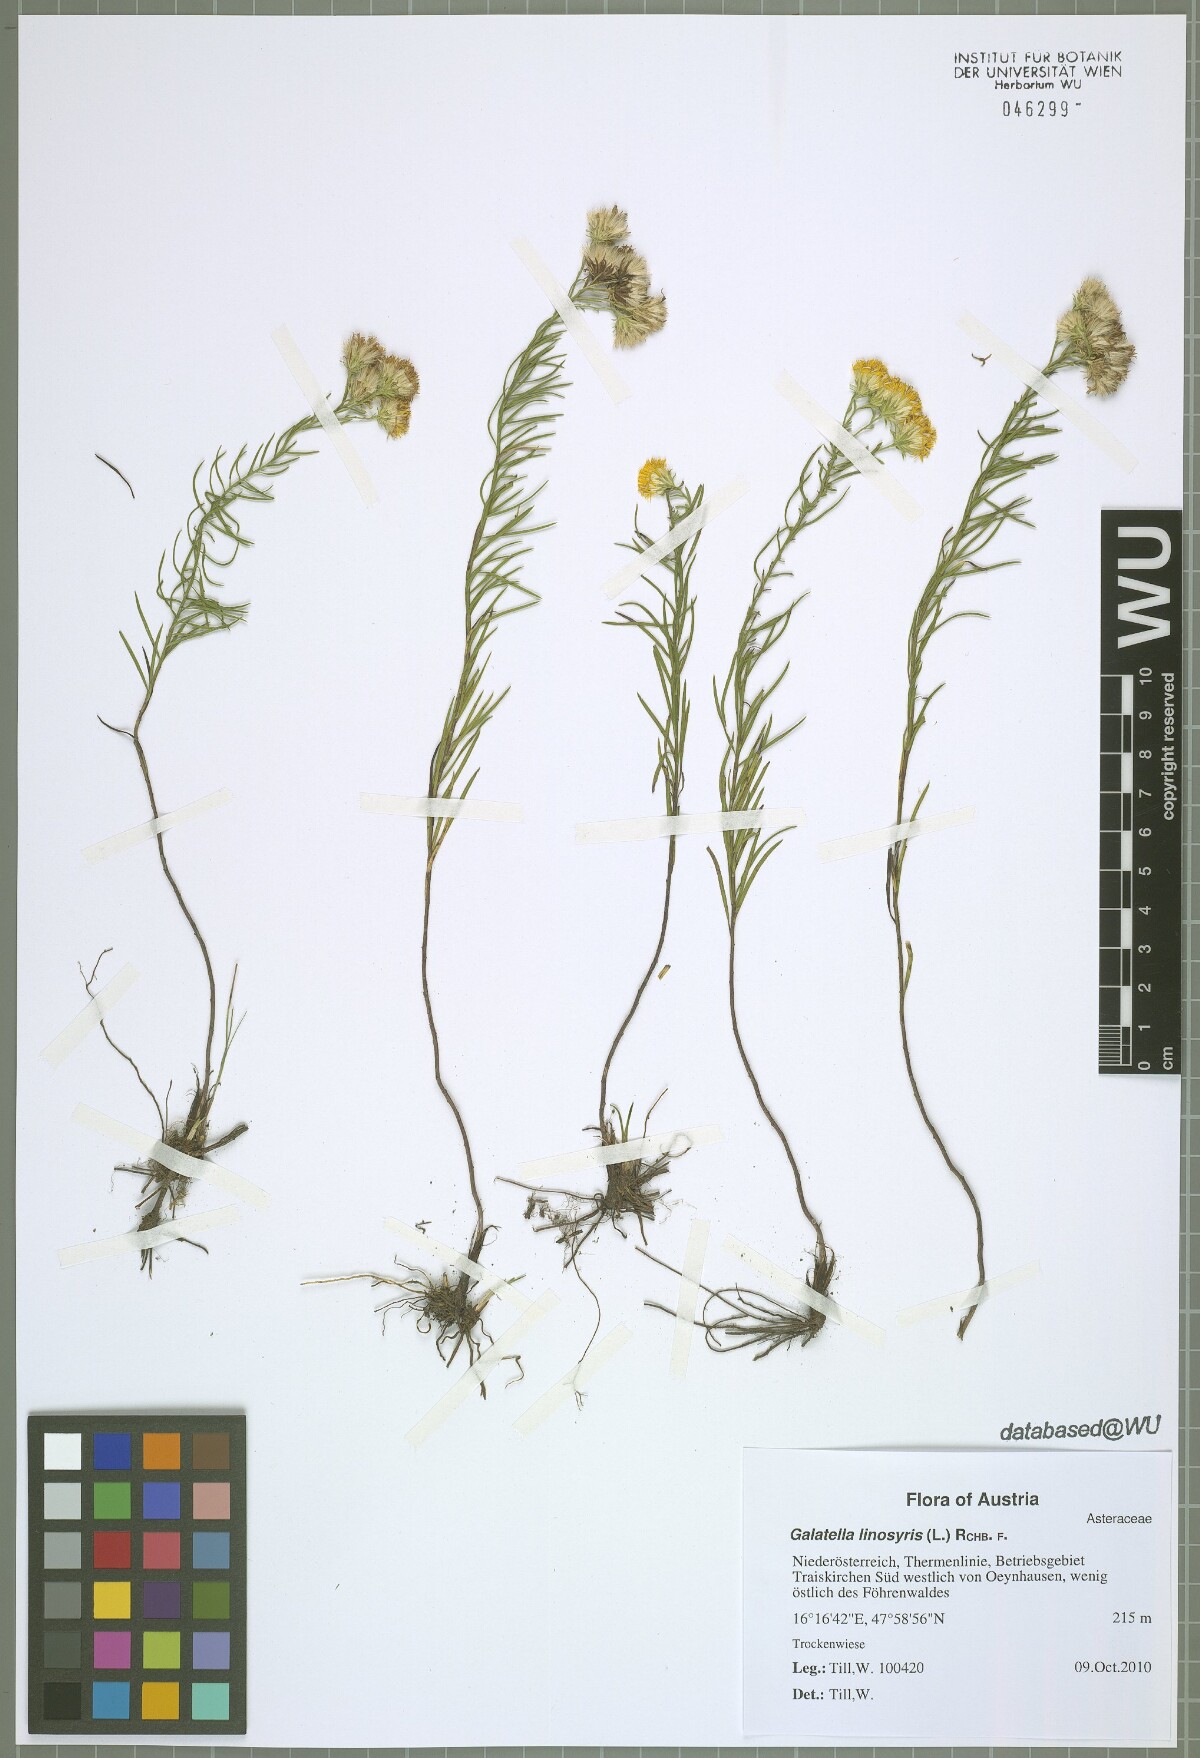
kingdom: Plantae
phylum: Tracheophyta
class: Magnoliopsida
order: Asterales
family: Asteraceae
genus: Galatella
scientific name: Galatella linosyris
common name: Goldilocks aster
